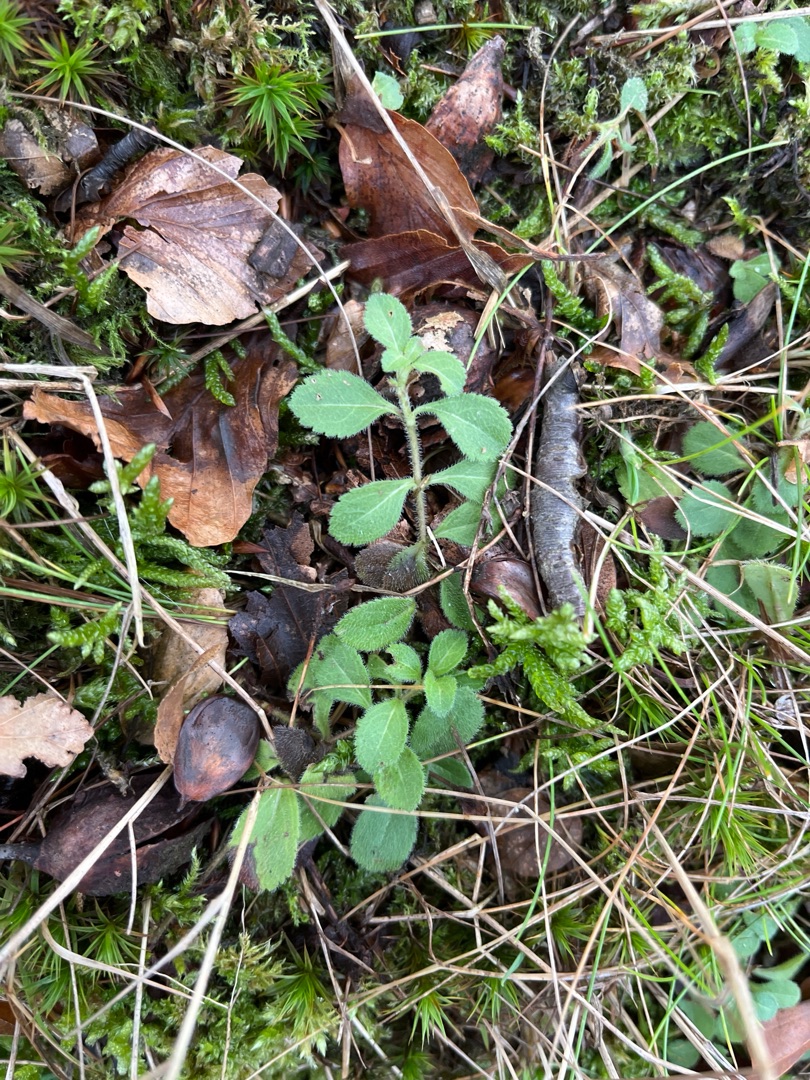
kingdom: Plantae
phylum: Tracheophyta
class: Magnoliopsida
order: Lamiales
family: Plantaginaceae
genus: Veronica
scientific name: Veronica officinalis
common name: Læge-ærenpris
